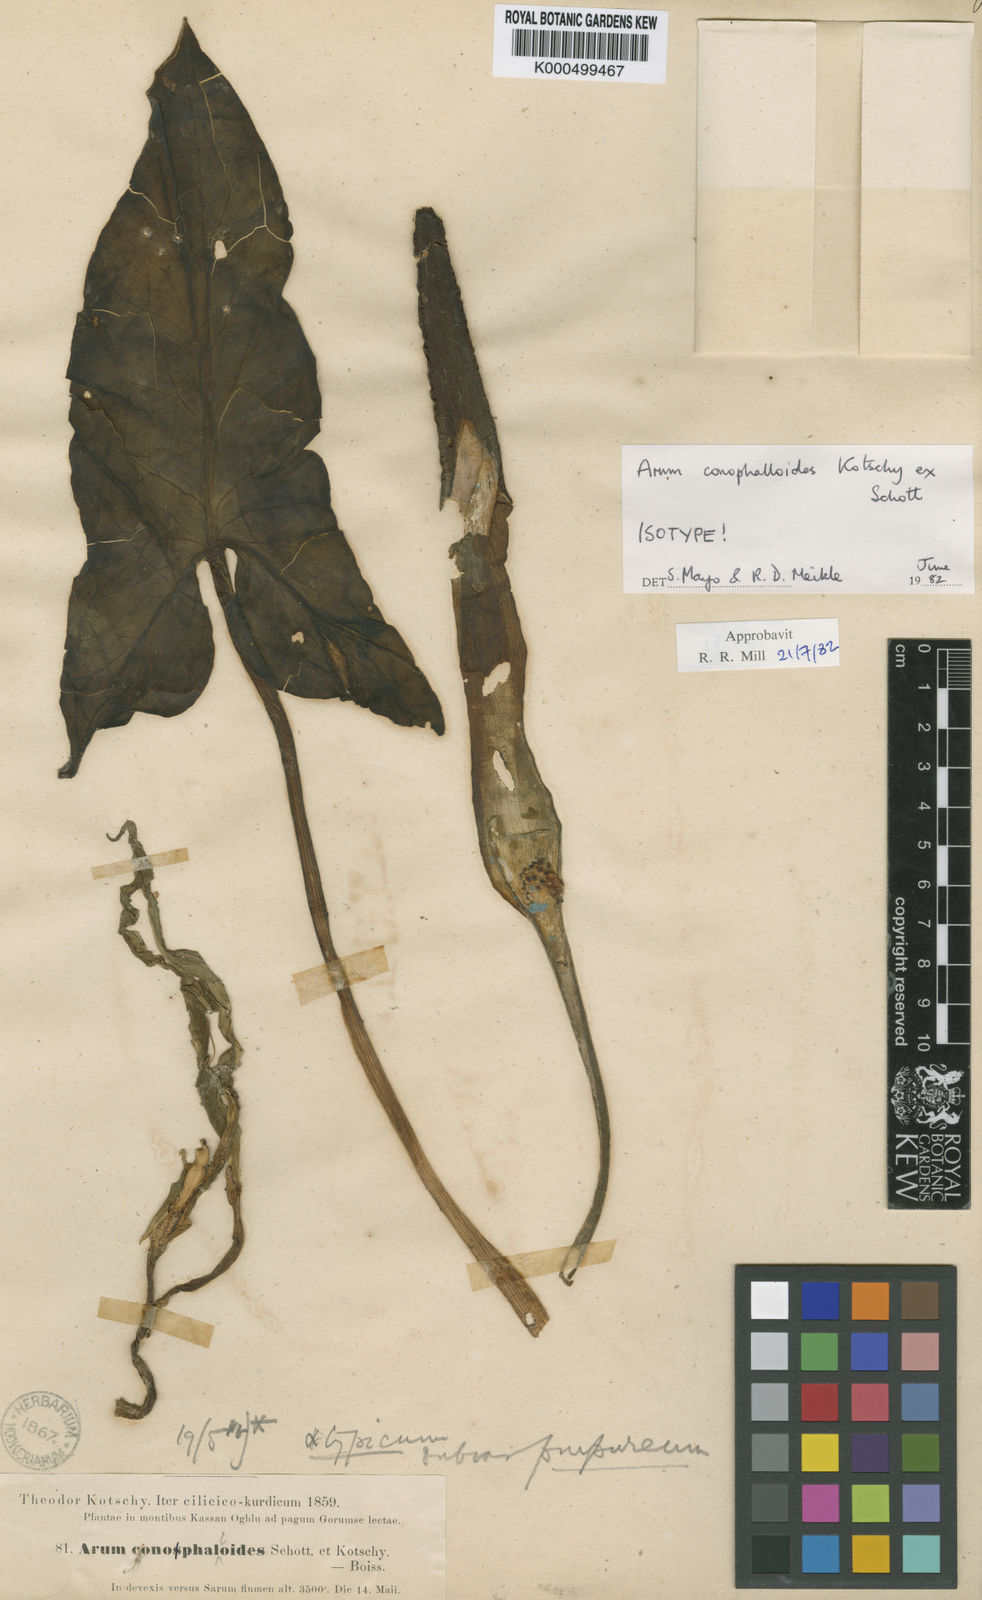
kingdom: Plantae
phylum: Tracheophyta
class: Liliopsida
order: Alismatales
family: Araceae
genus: Arum
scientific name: Arum rupicola
